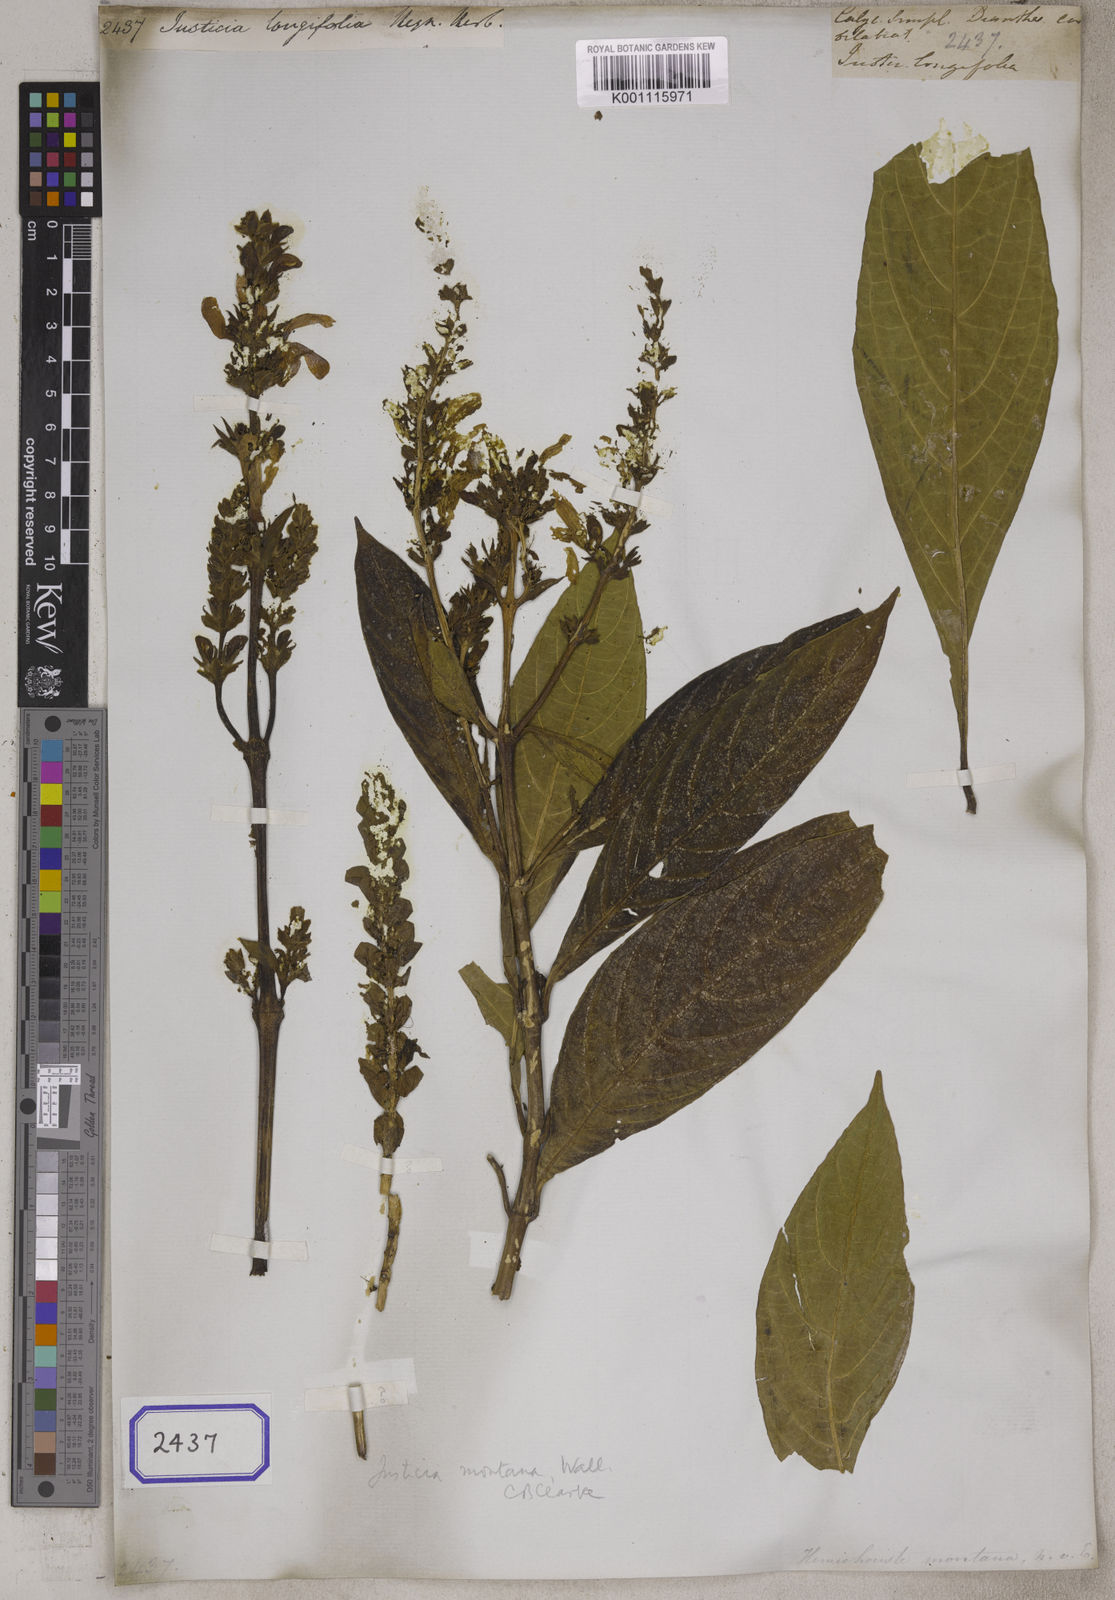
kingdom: Plantae
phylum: Tracheophyta
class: Magnoliopsida
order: Lamiales
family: Acanthaceae
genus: Justicia
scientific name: Justicia santapaui
